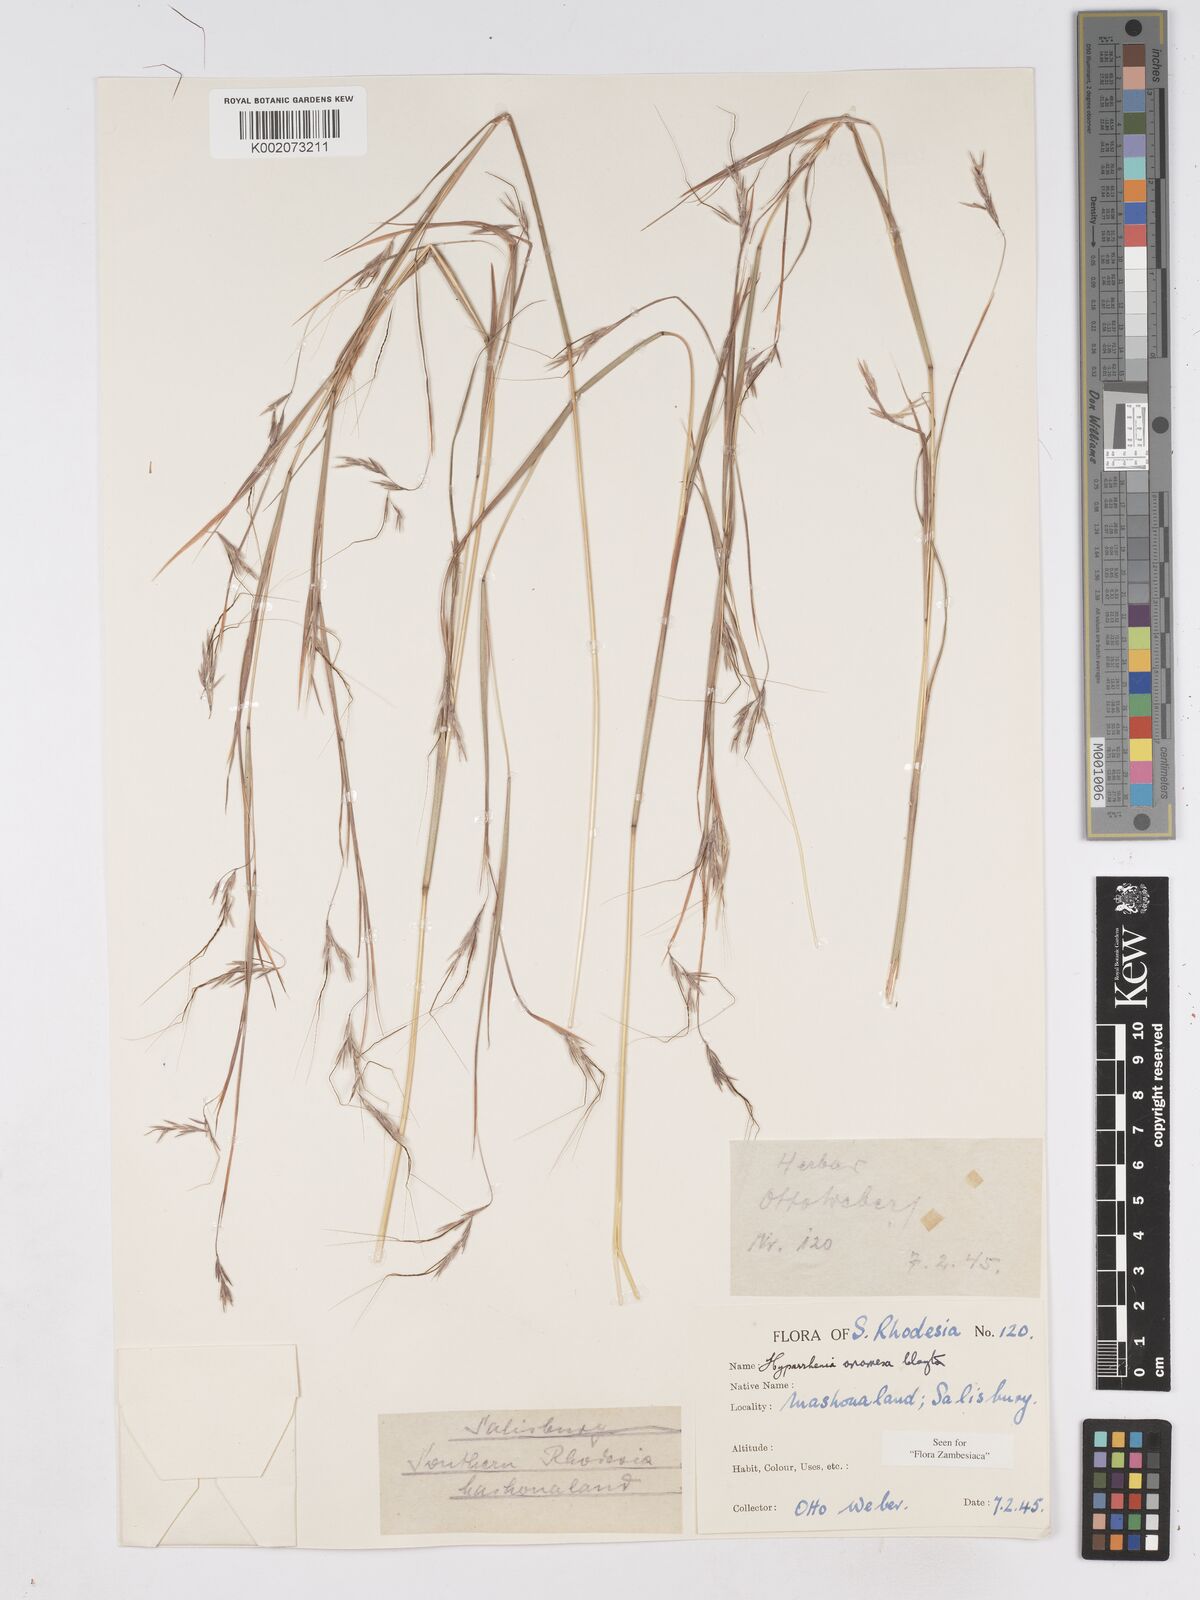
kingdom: Plantae
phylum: Tracheophyta
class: Liliopsida
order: Poales
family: Poaceae
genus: Hyparrhenia
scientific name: Hyparrhenia anamesa
